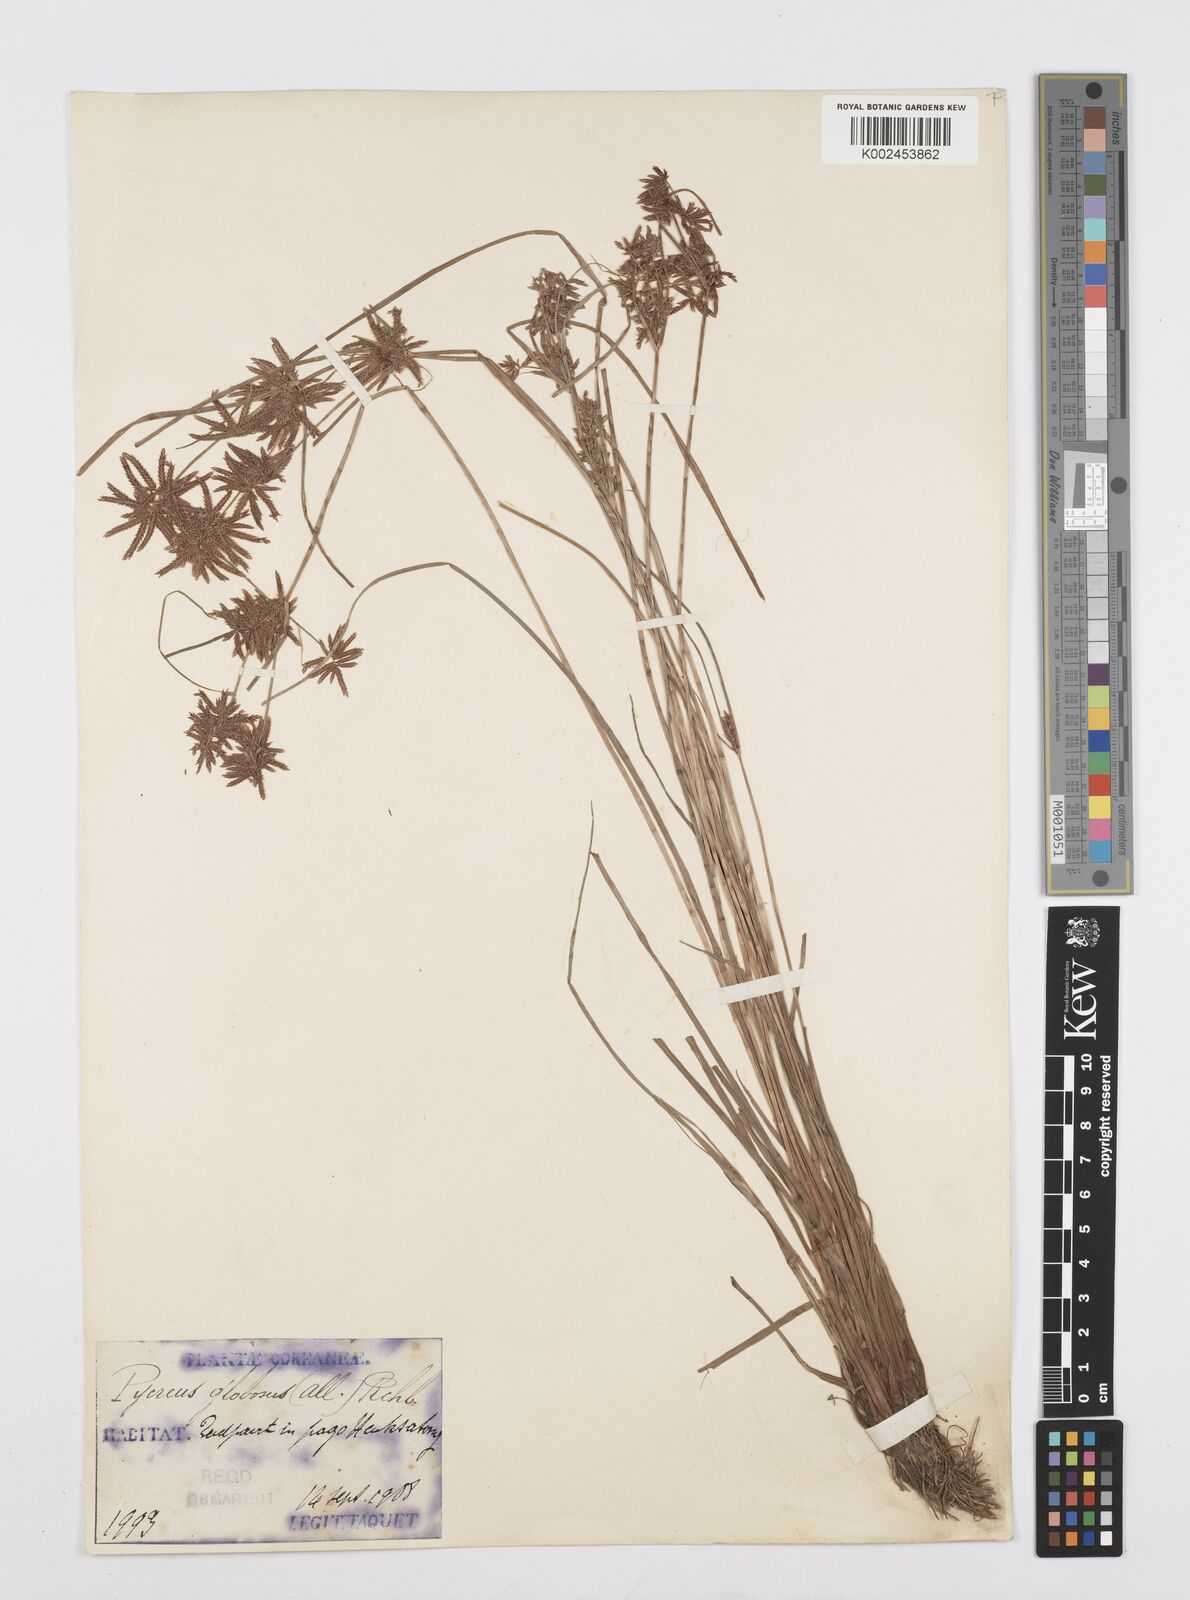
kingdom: Plantae
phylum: Tracheophyta
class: Liliopsida
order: Poales
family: Cyperaceae
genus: Cyperus
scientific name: Cyperus flavidus
